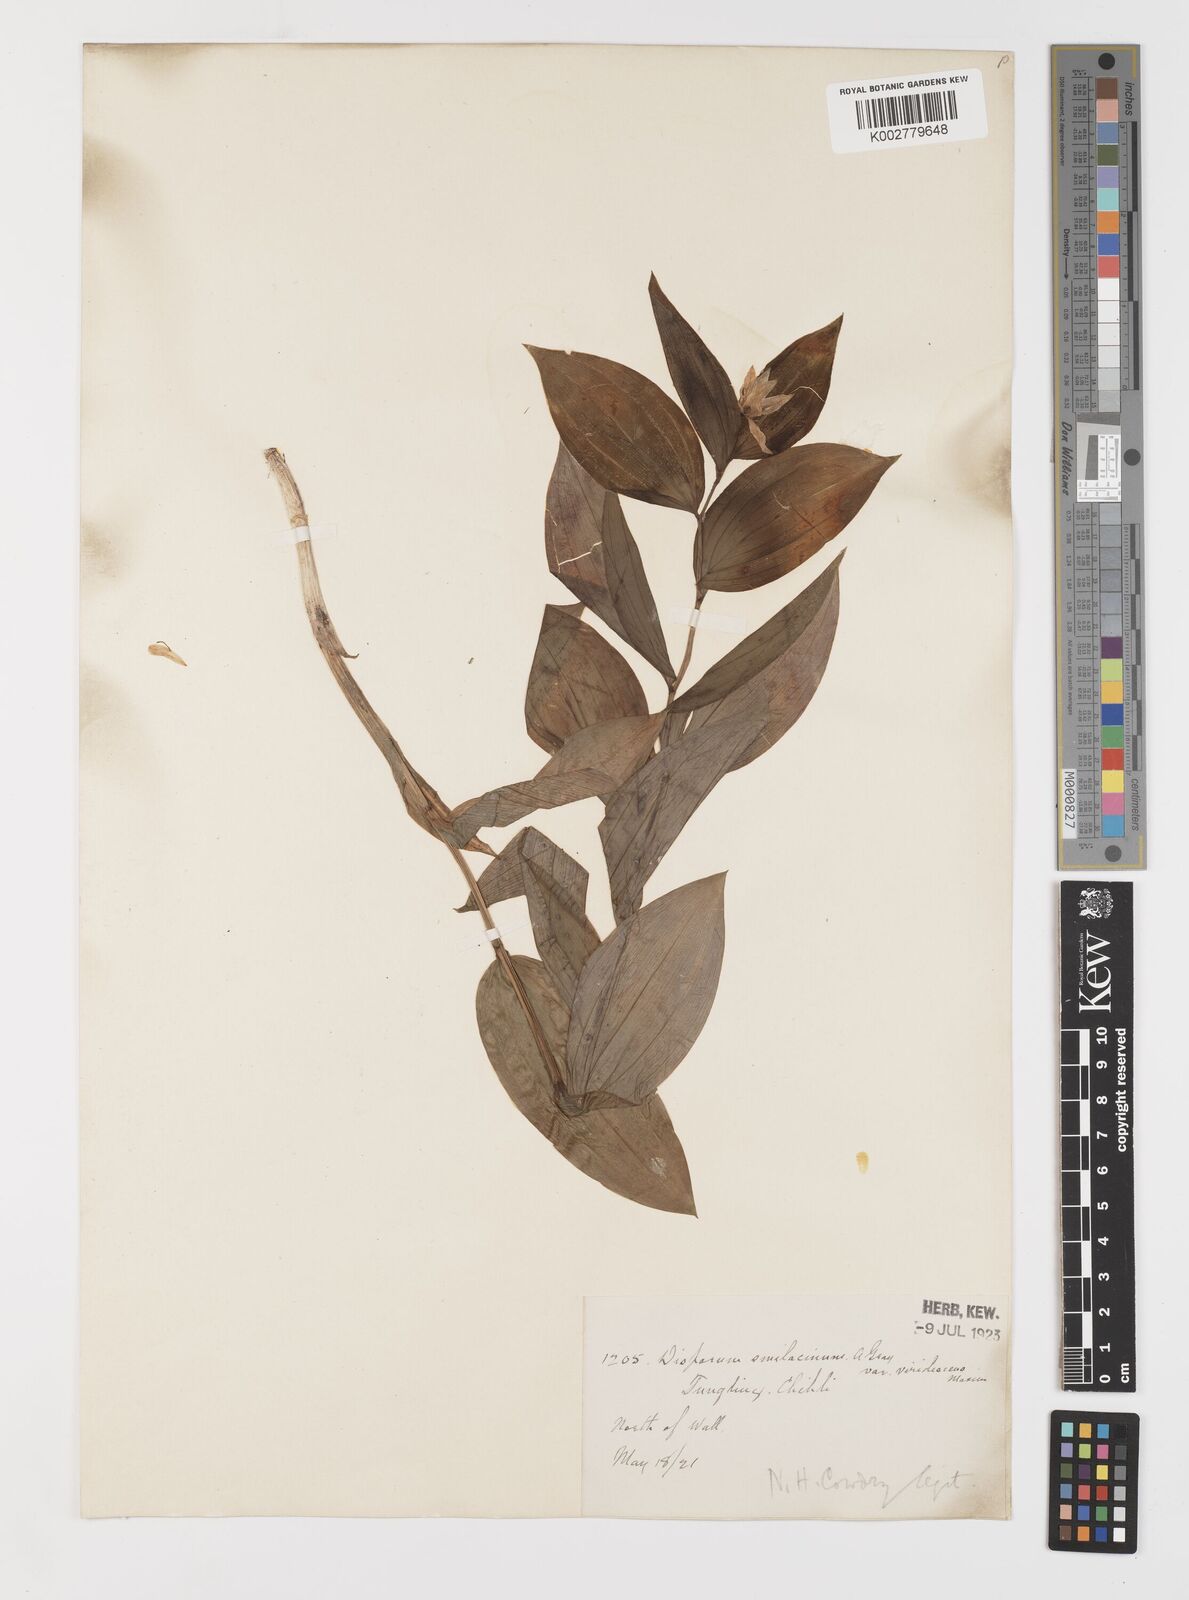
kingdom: Plantae
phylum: Tracheophyta
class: Liliopsida
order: Liliales
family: Colchicaceae
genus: Disporum
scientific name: Disporum viridescens
